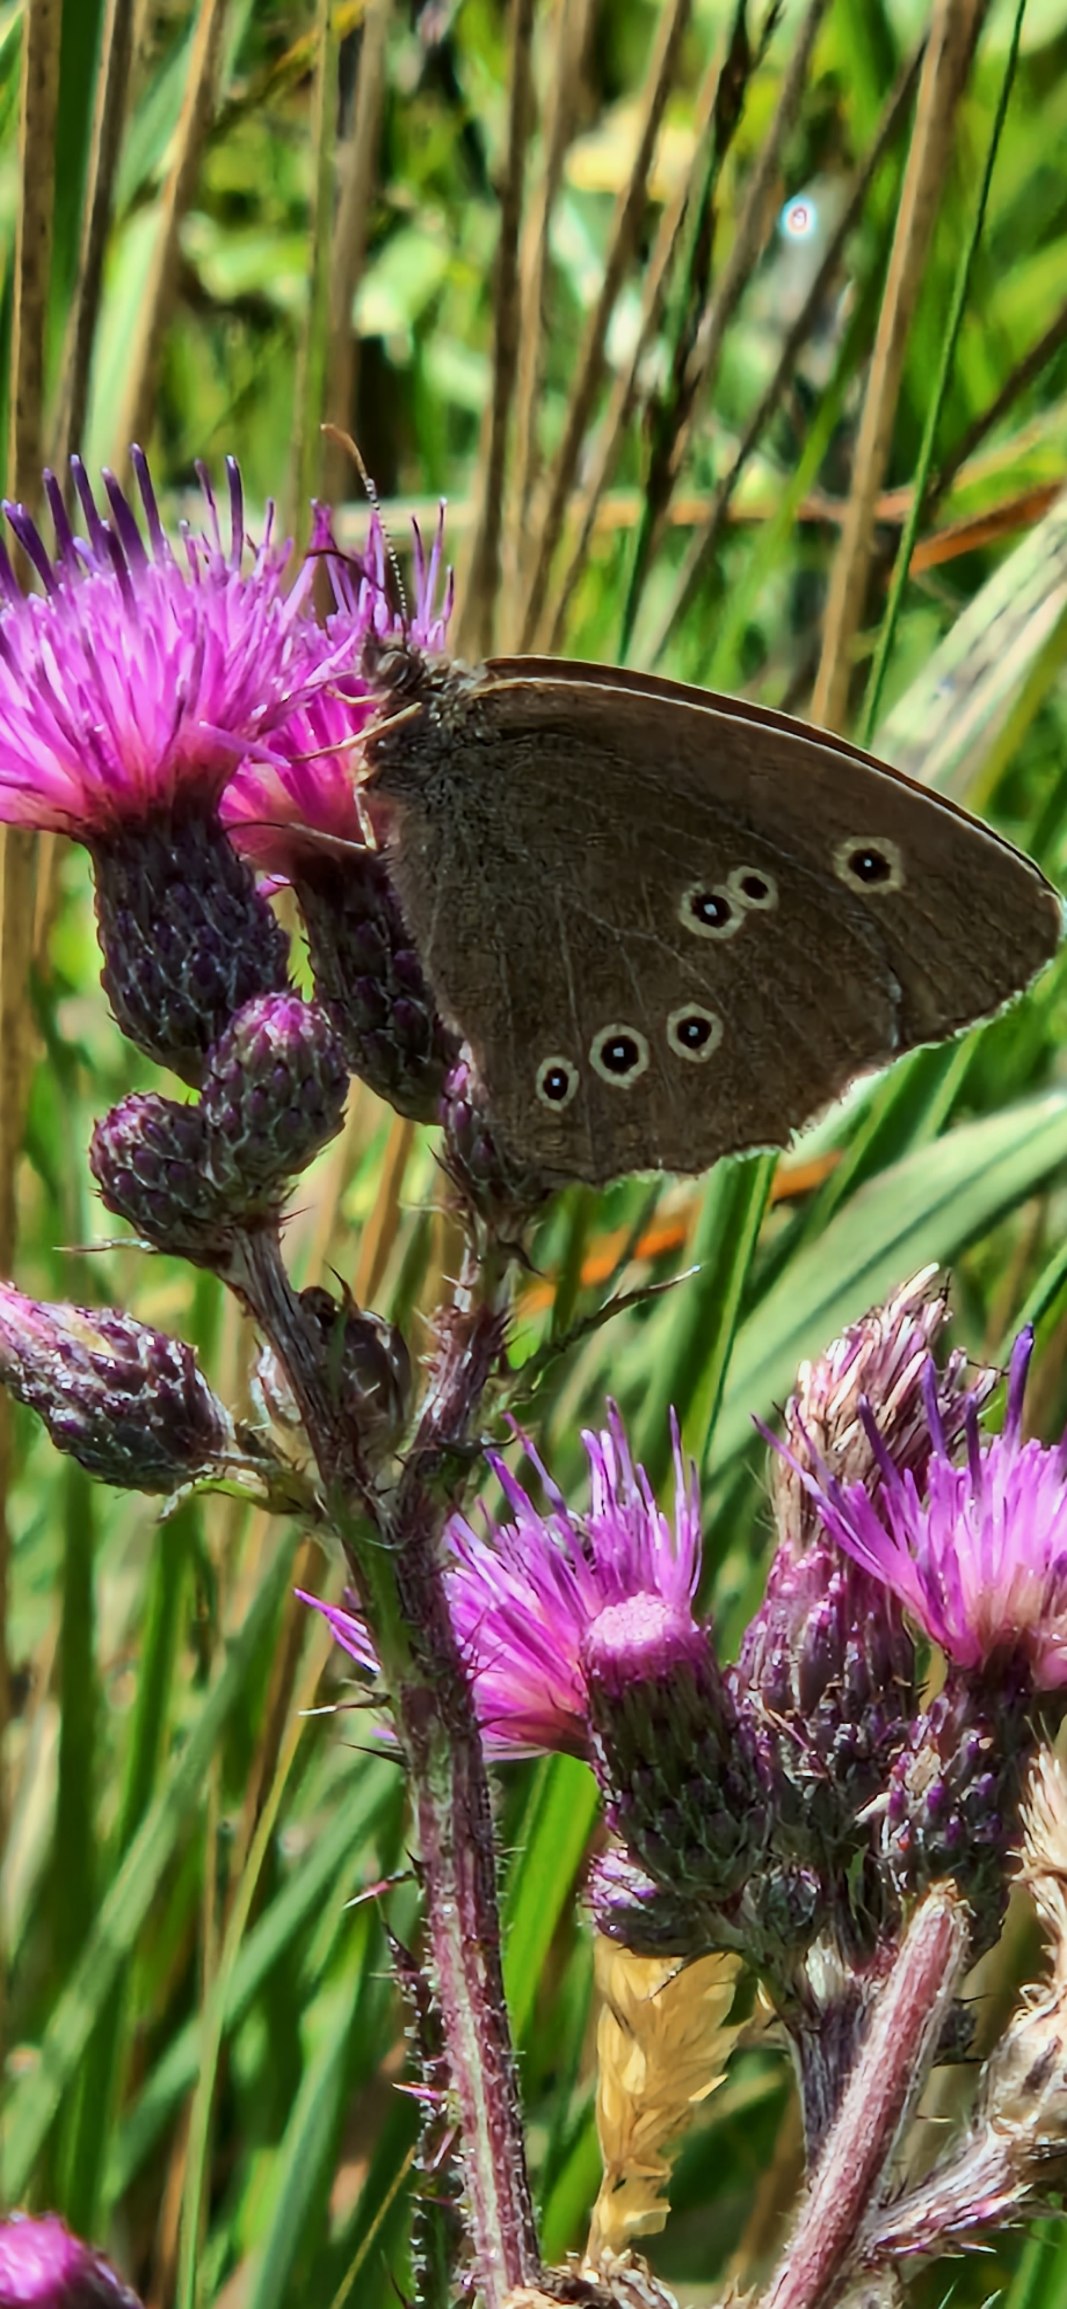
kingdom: Animalia
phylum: Arthropoda
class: Insecta
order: Lepidoptera
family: Nymphalidae
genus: Aphantopus
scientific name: Aphantopus hyperantus
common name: Engrandøje
